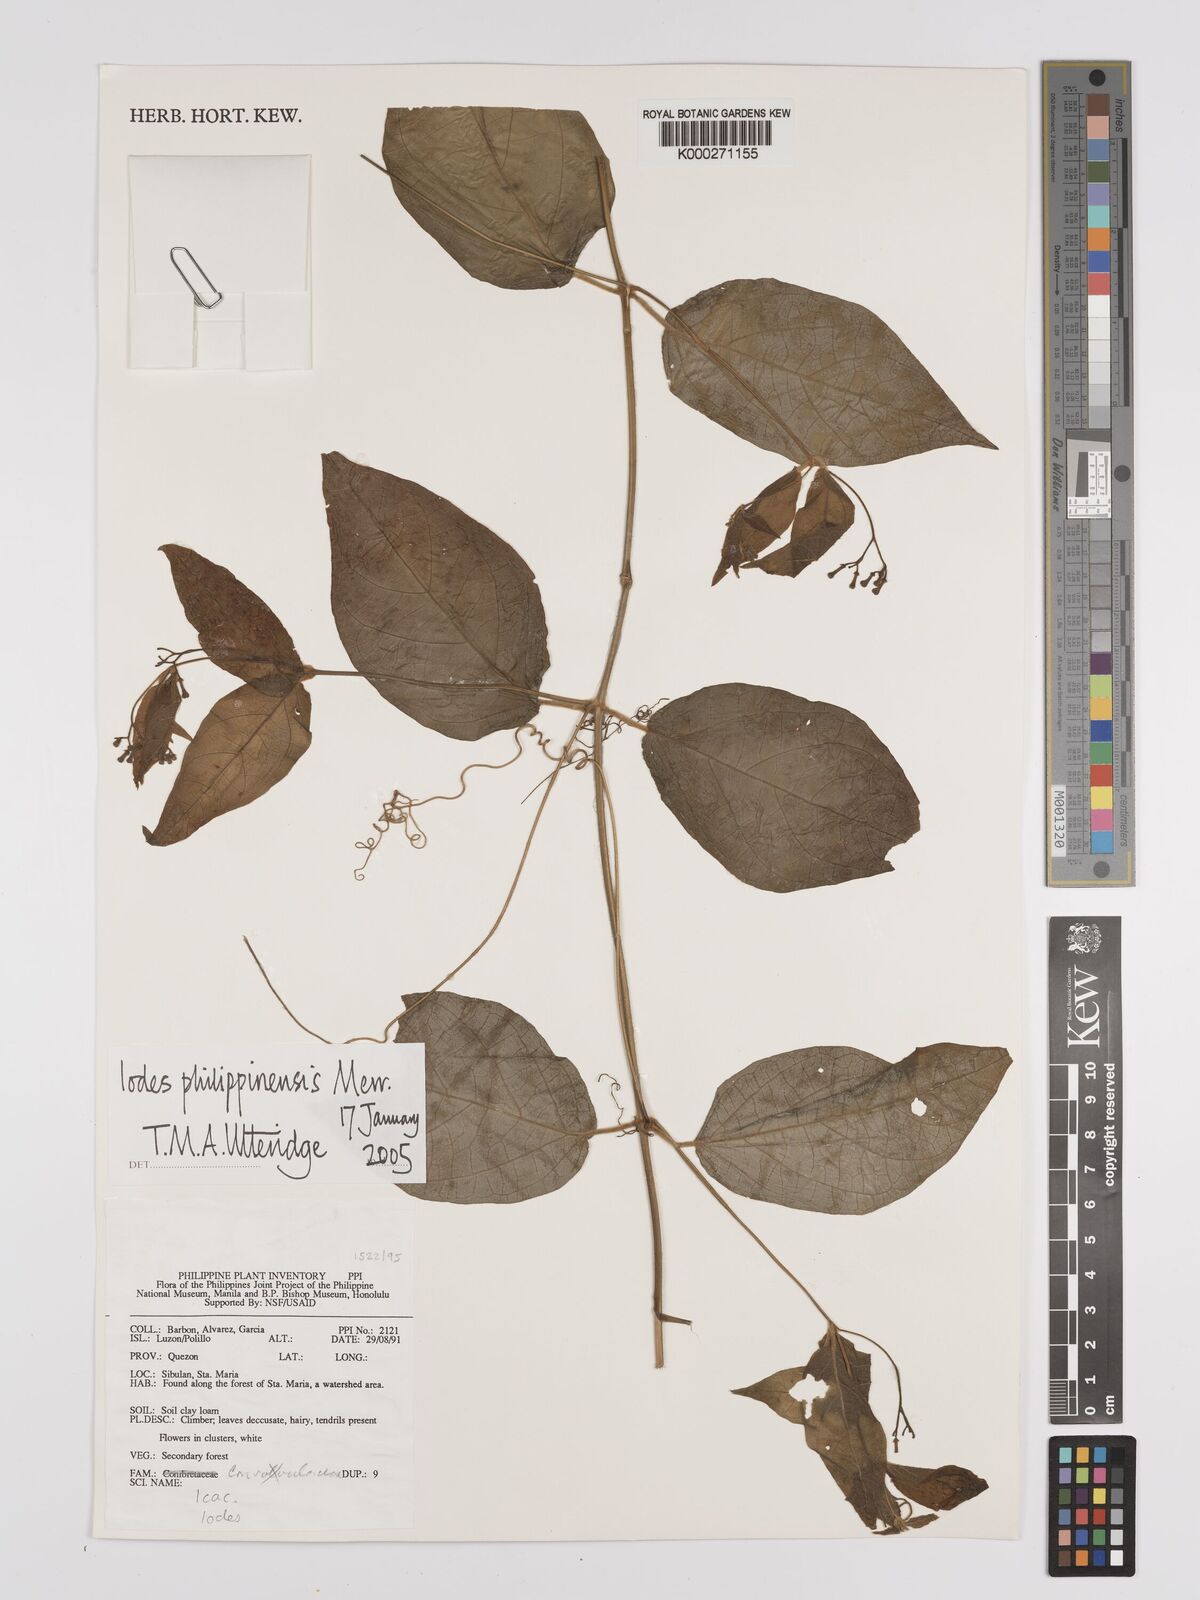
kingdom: Plantae
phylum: Tracheophyta
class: Magnoliopsida
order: Icacinales
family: Icacinaceae
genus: Iodes
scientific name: Iodes philippinensis
